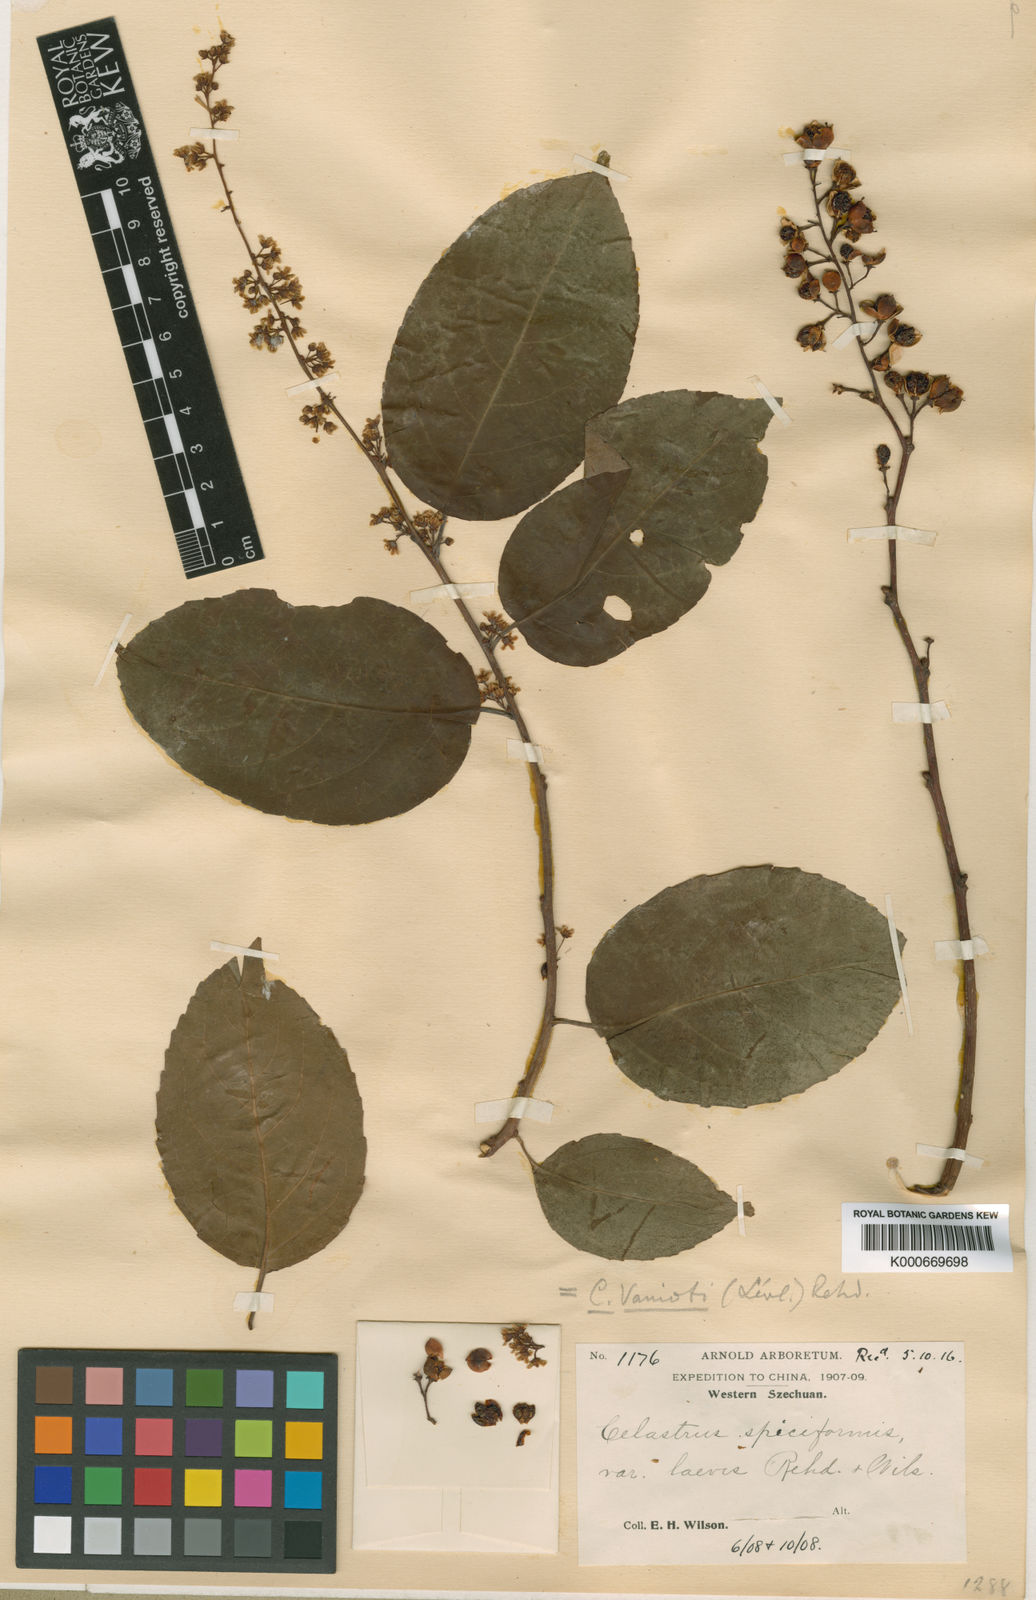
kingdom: Plantae
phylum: Tracheophyta
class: Magnoliopsida
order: Celastrales
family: Celastraceae
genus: Celastrus
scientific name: Celastrus
